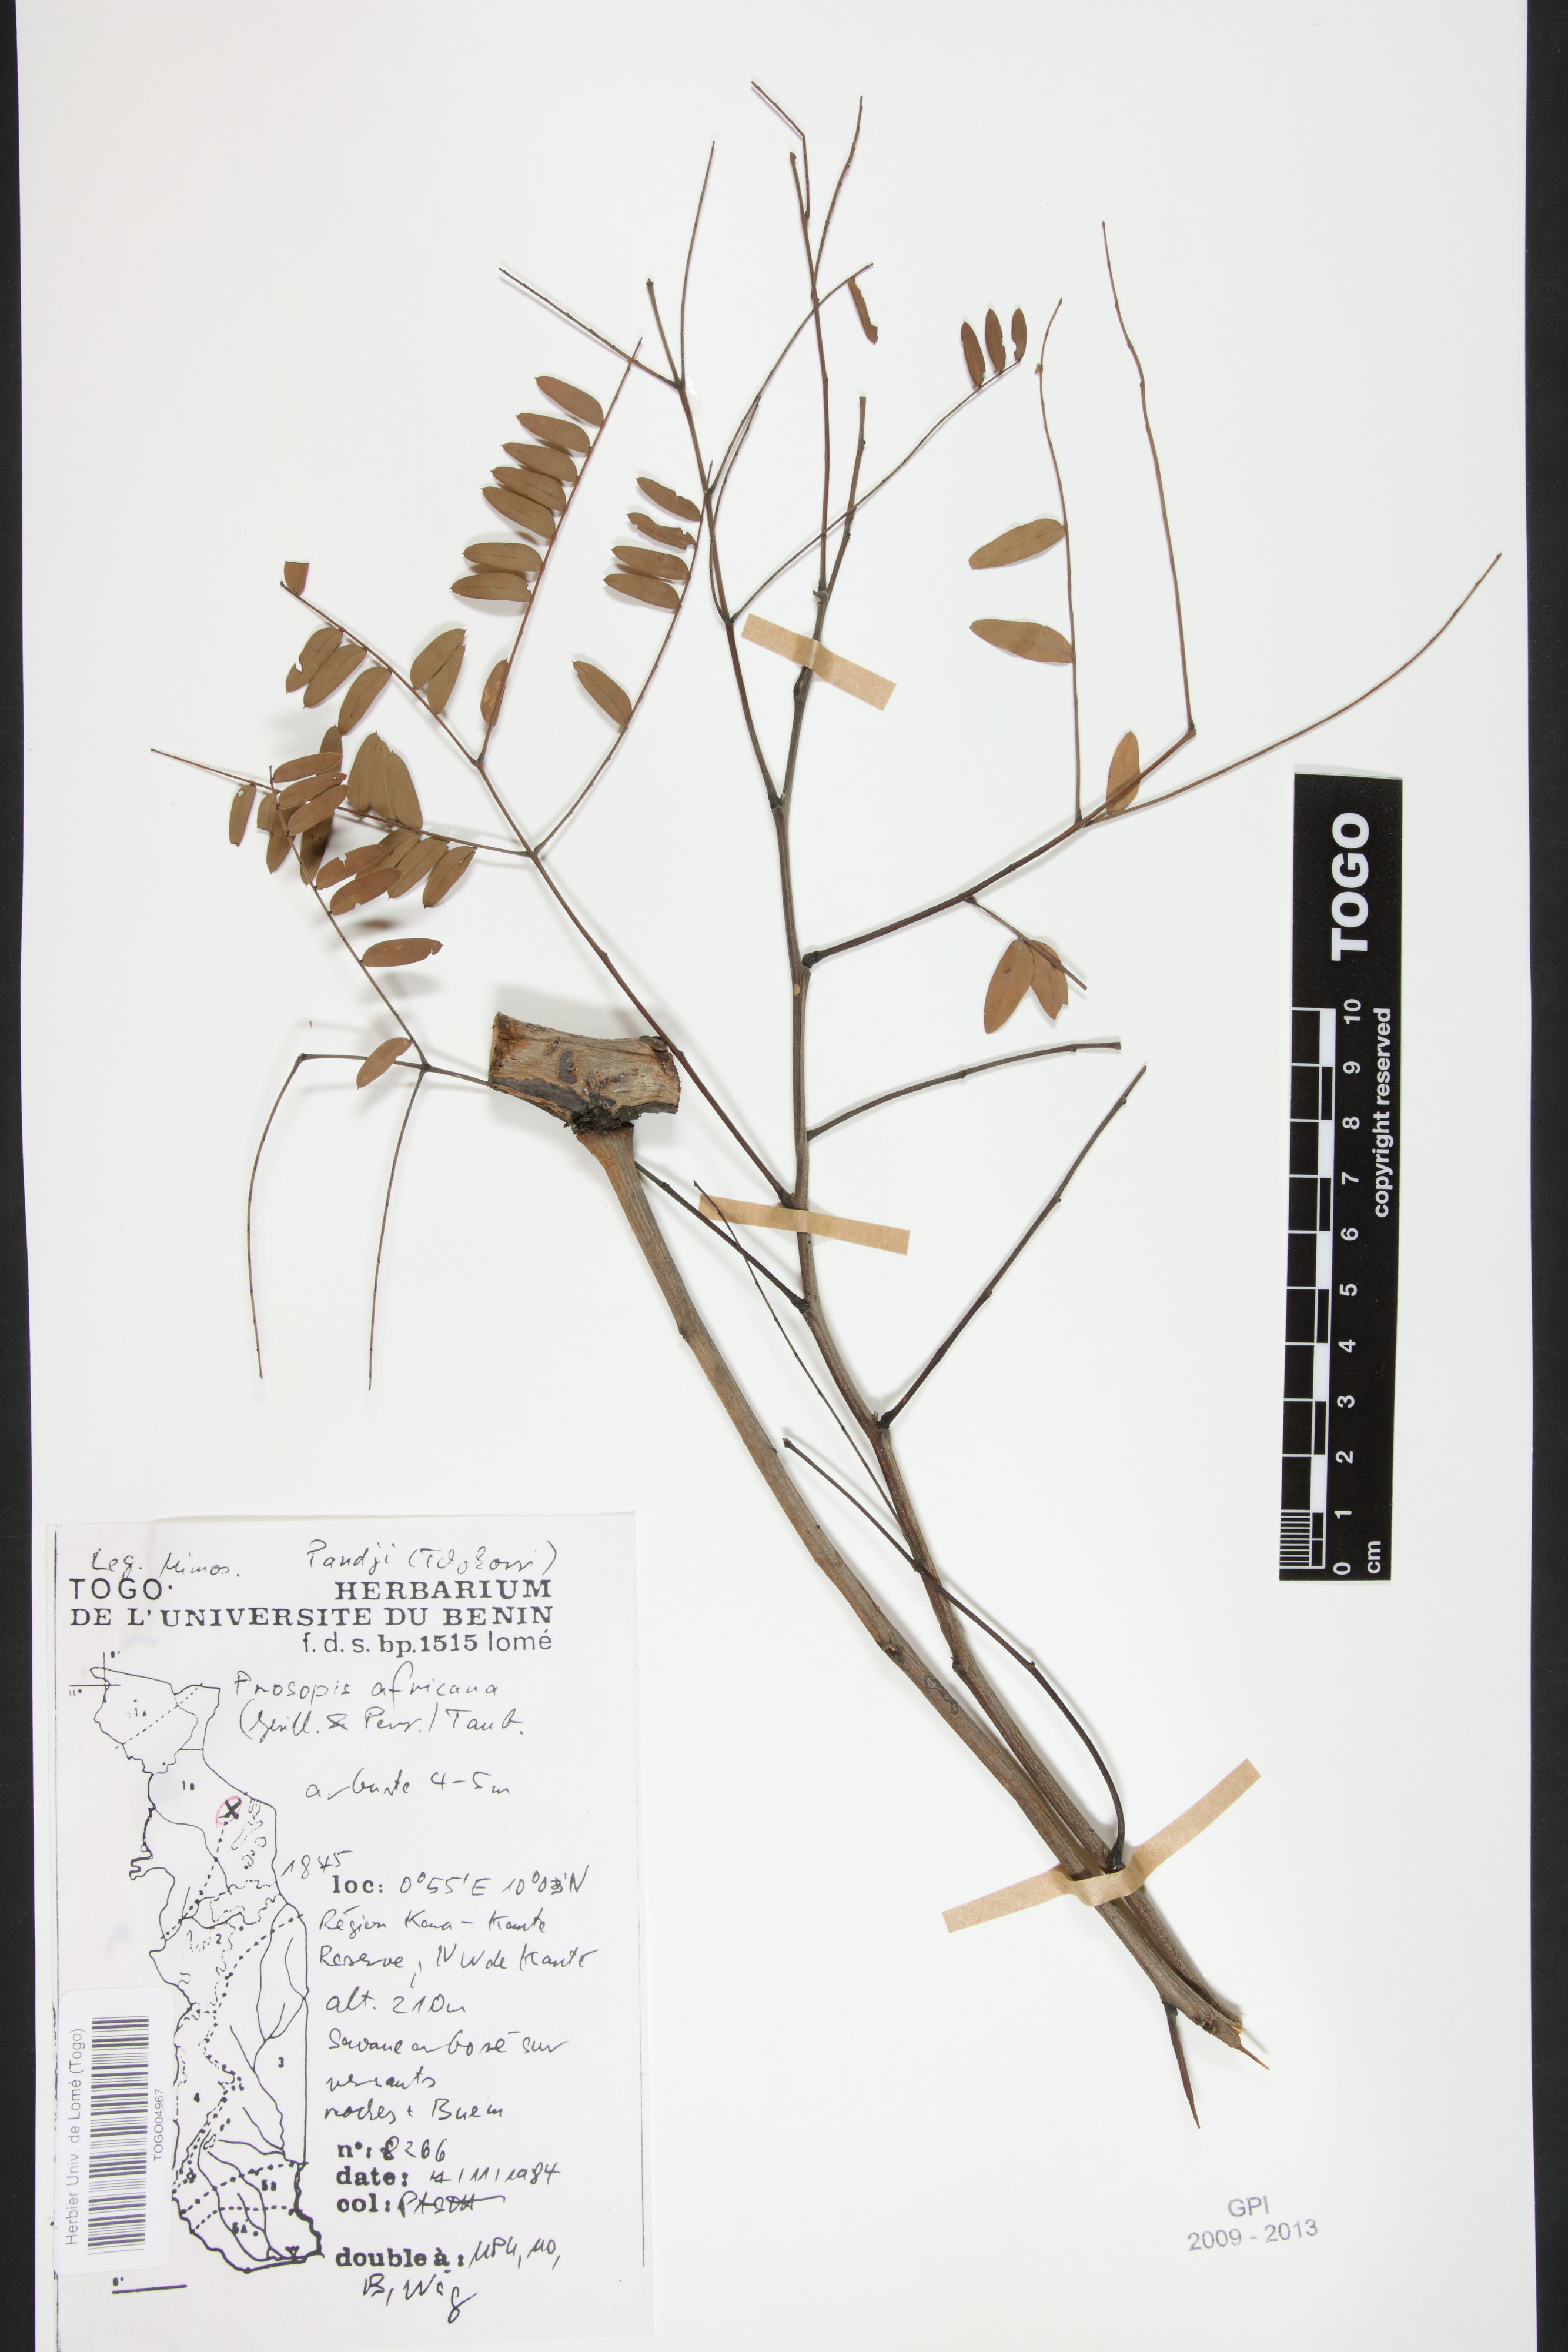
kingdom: Plantae
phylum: Tracheophyta
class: Magnoliopsida
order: Fabales
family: Fabaceae
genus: Prosopis
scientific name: Prosopis africana
